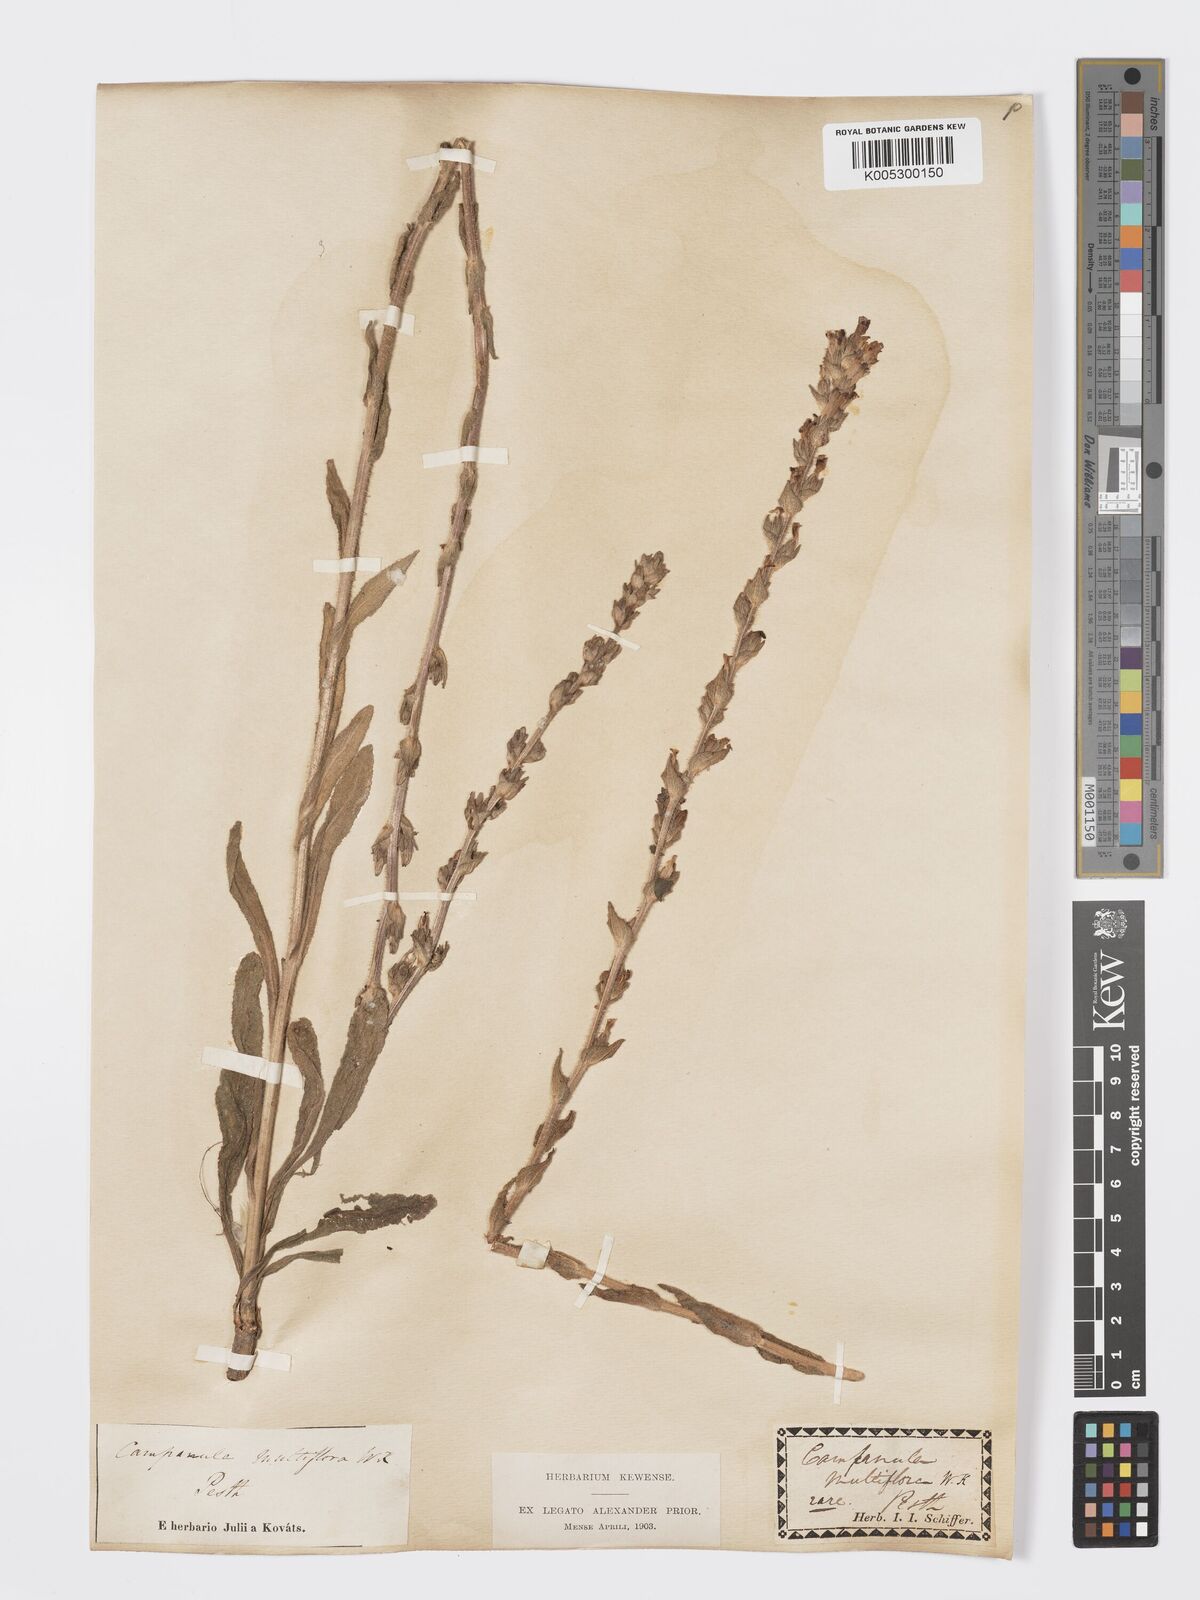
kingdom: Plantae
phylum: Tracheophyta
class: Magnoliopsida
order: Asterales
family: Campanulaceae
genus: Campanula
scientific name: Campanula macrostachya
